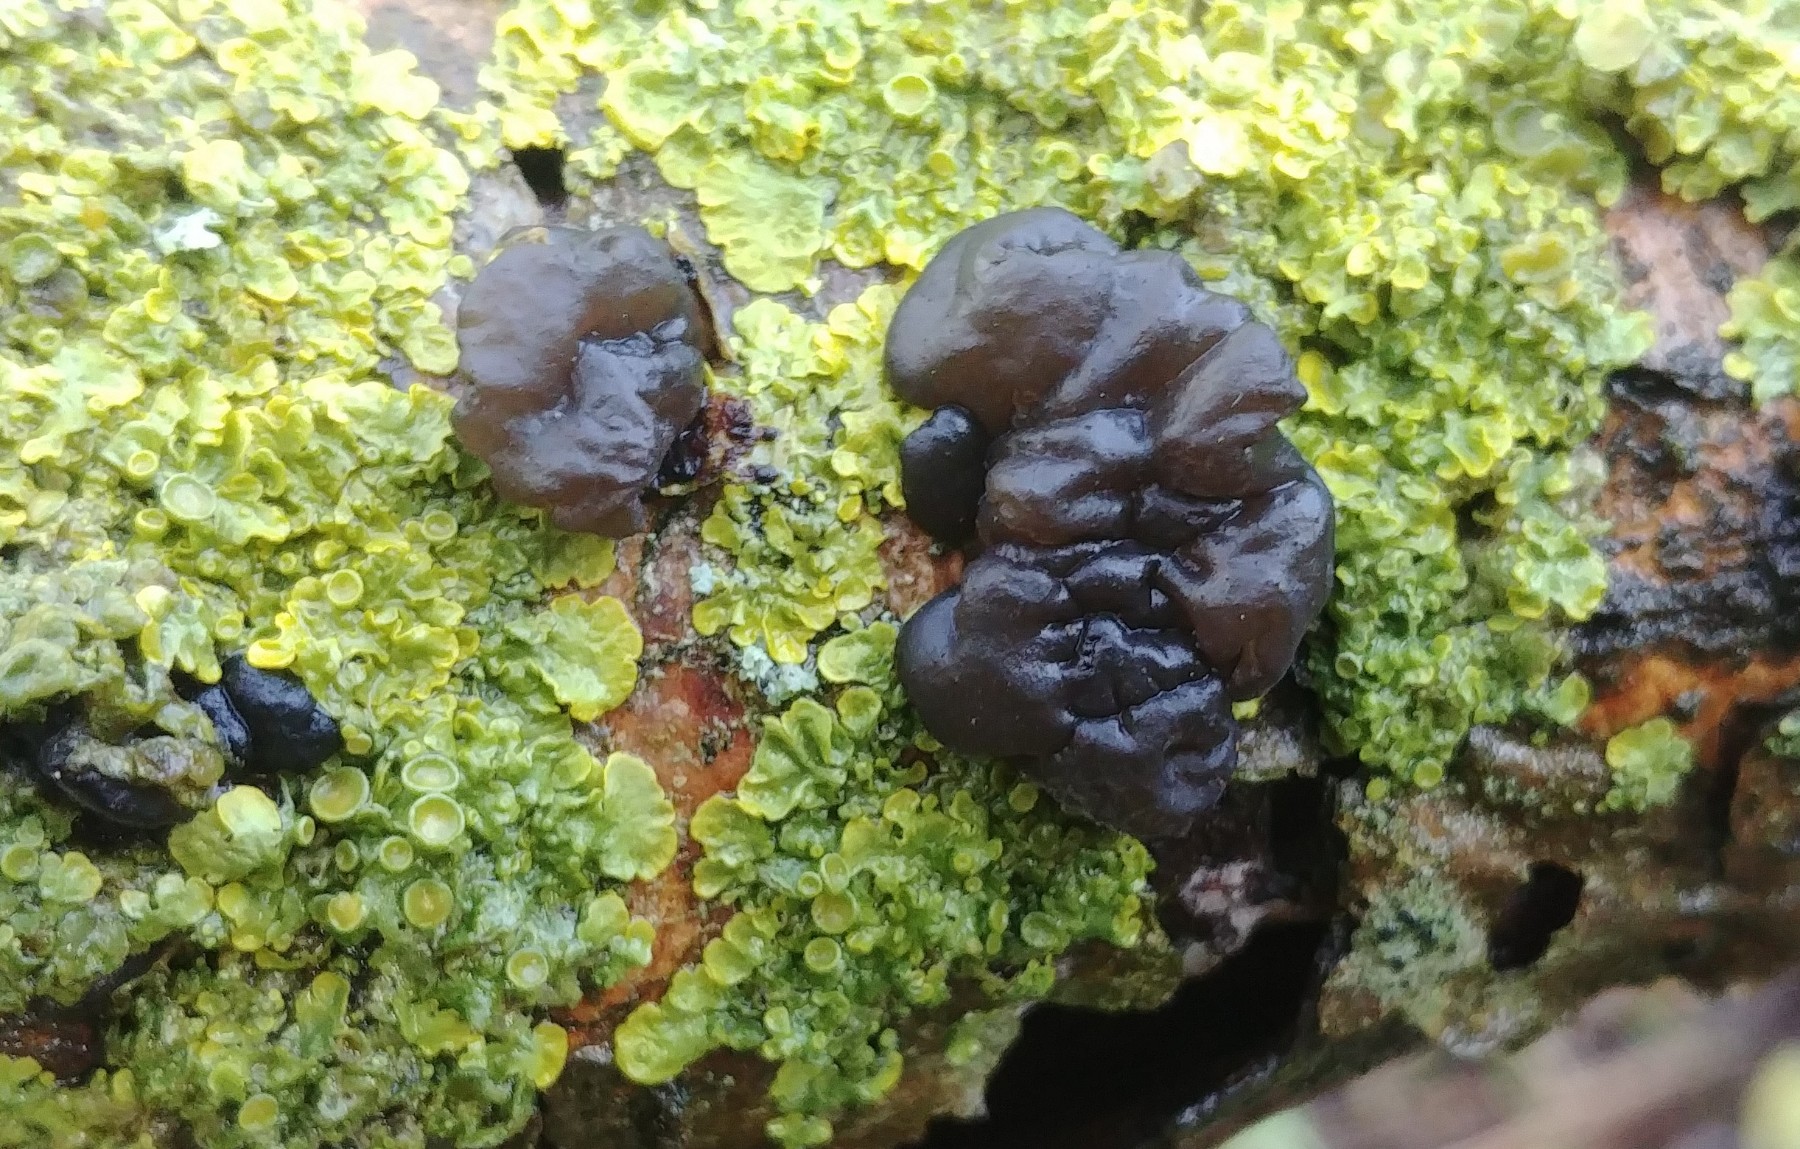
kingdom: Fungi
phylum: Basidiomycota
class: Agaricomycetes
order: Auriculariales
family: Auriculariaceae
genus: Exidia
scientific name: Exidia nigricans
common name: almindelig bævretop
